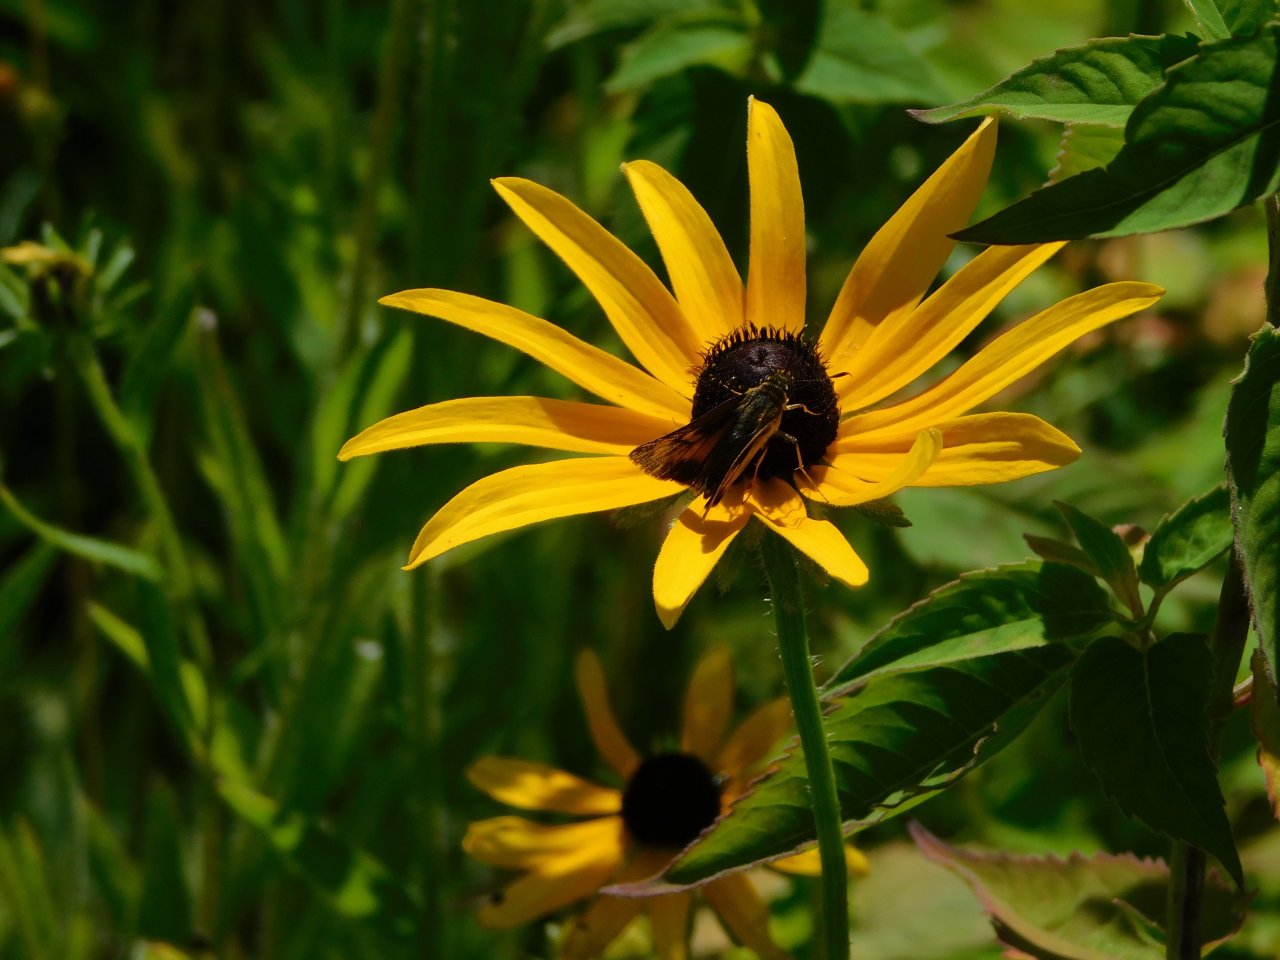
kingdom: Animalia
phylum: Arthropoda
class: Insecta
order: Lepidoptera
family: Hesperiidae
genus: Lon
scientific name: Lon hobomok
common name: Hobomok Skipper
